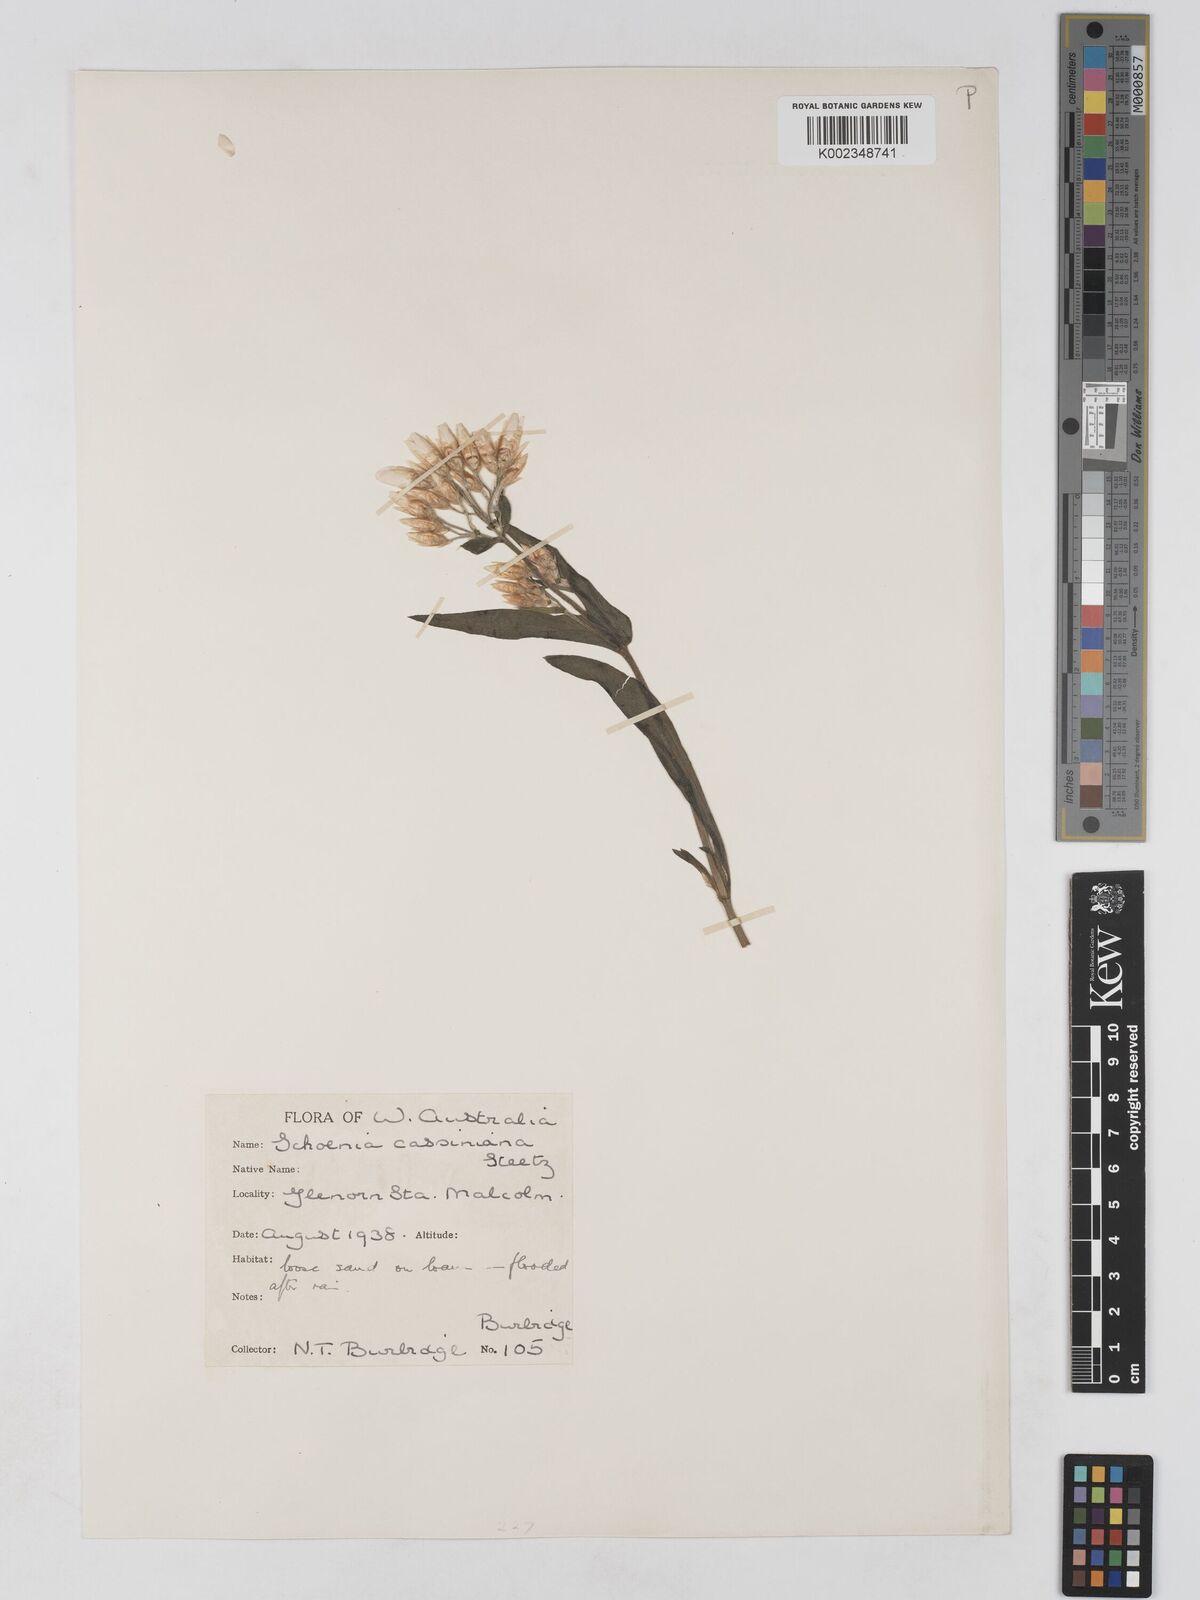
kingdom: Plantae
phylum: Tracheophyta
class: Magnoliopsida
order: Asterales
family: Asteraceae
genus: Schoenia
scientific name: Schoenia cassiniana
